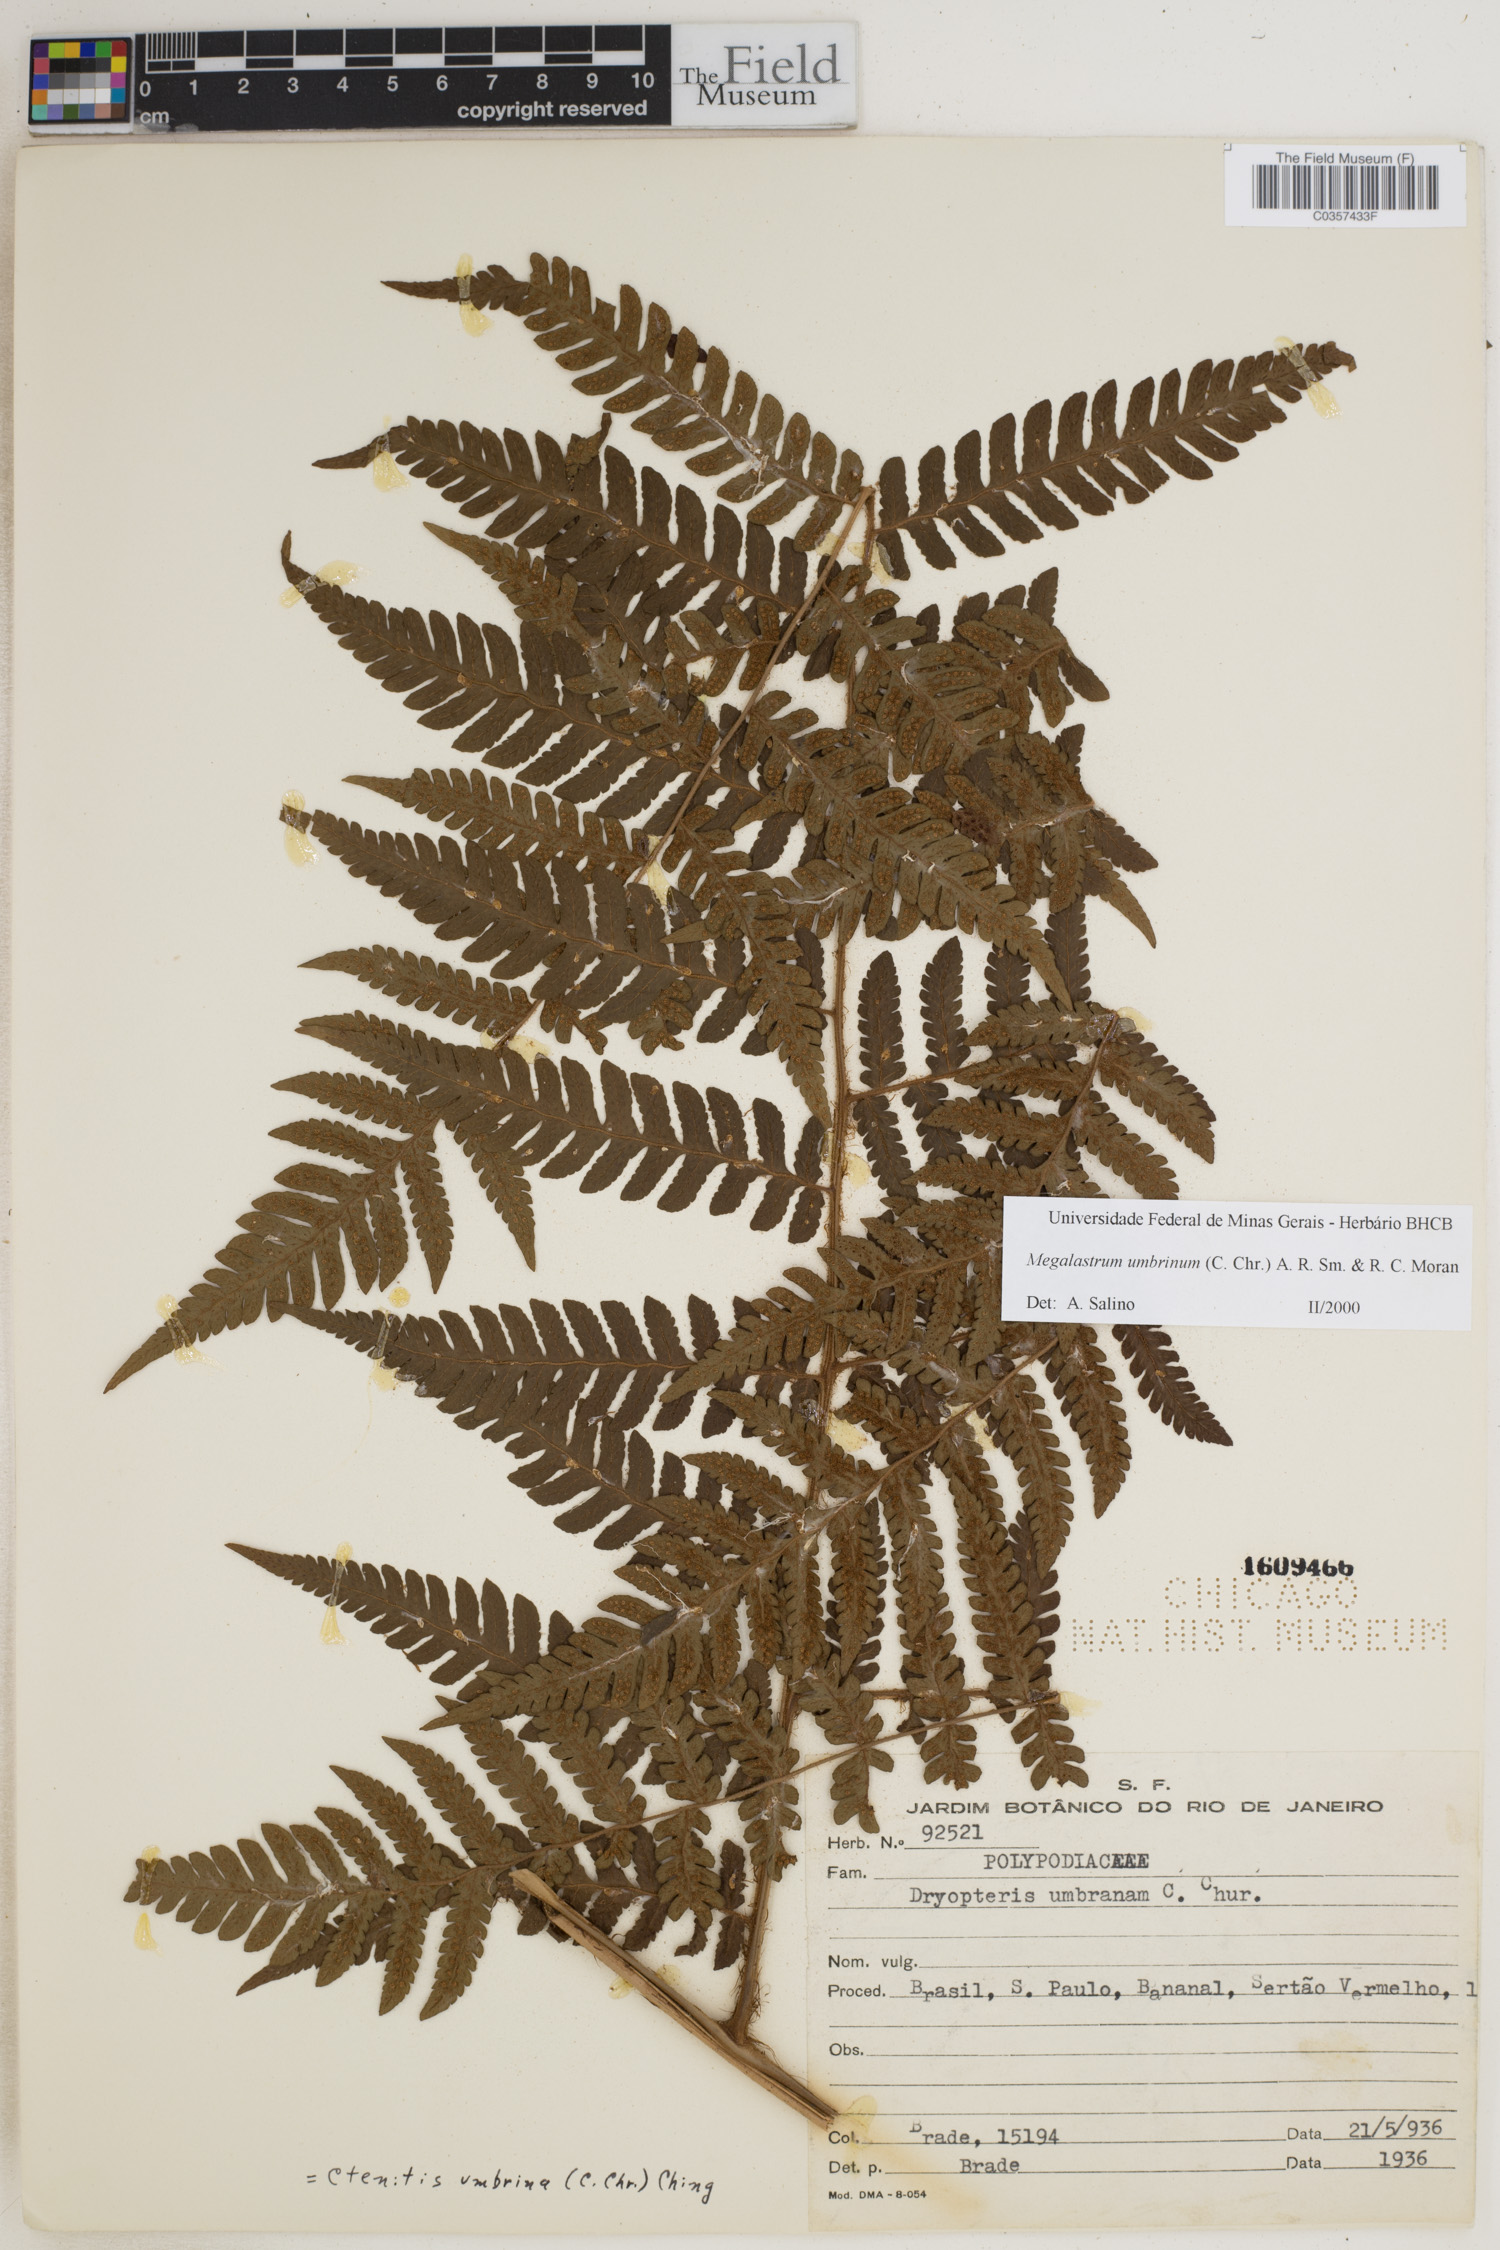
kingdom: Plantae
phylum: Tracheophyta
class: Polypodiopsida
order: Polypodiales
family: Dryopteridaceae
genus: Megalastrum
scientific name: Megalastrum umbrinum
